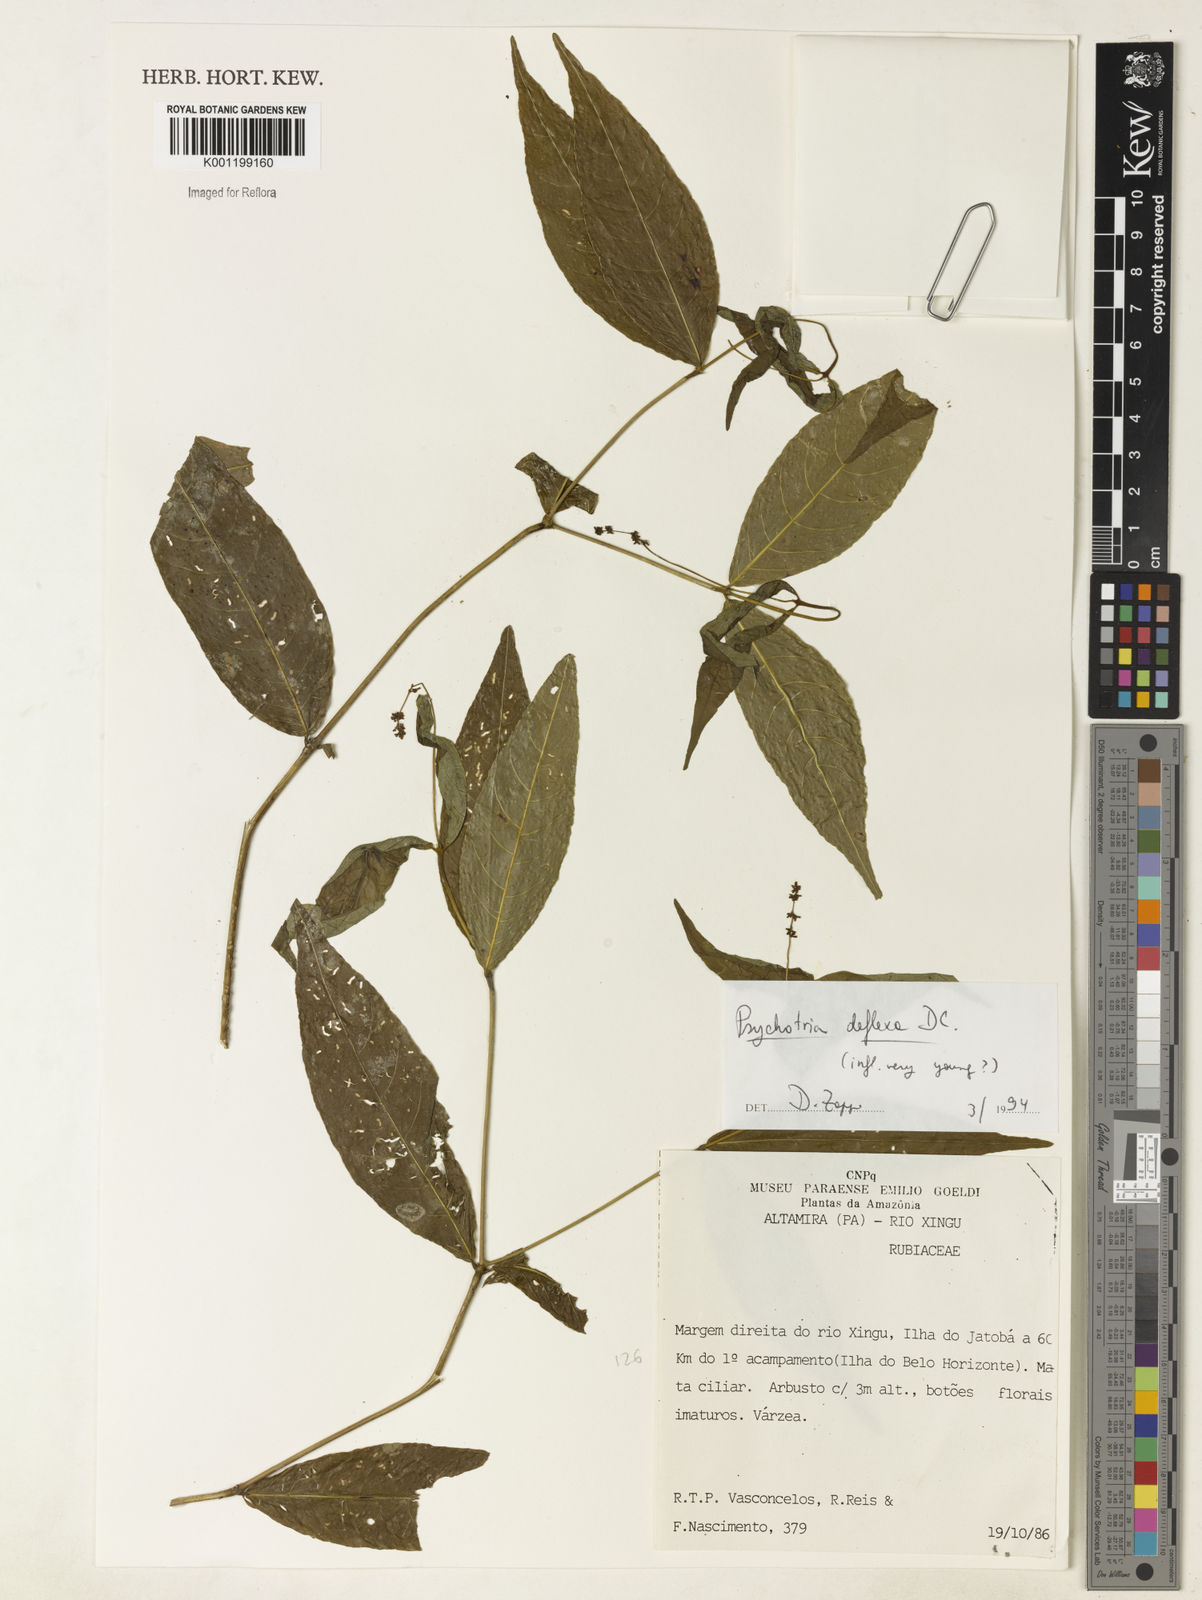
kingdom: Plantae
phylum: Tracheophyta
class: Magnoliopsida
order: Gentianales
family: Rubiaceae
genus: Palicourea
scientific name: Palicourea deflexa
